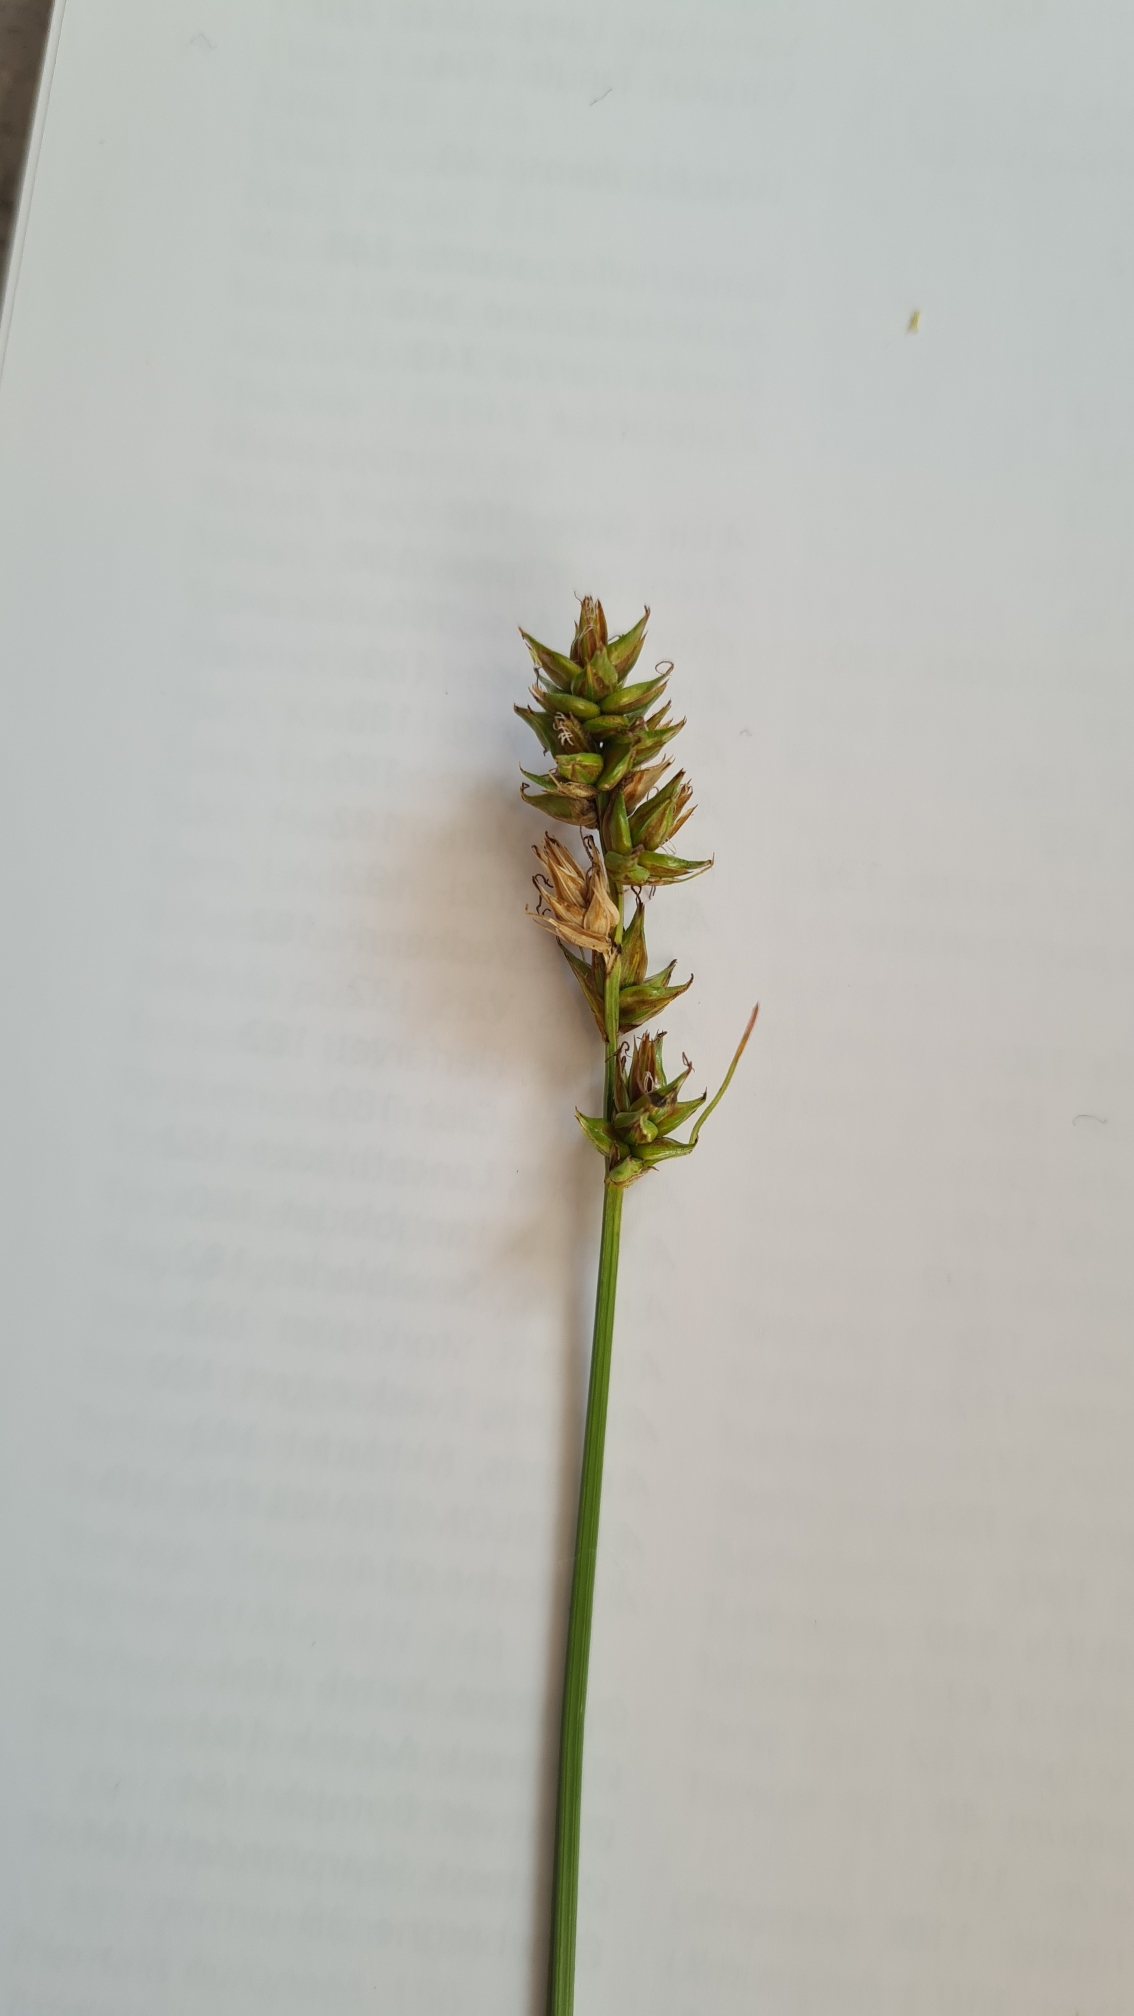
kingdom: Plantae
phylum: Tracheophyta
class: Liliopsida
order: Poales
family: Cyperaceae
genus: Carex
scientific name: Carex spicata
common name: Spidskapslet star
